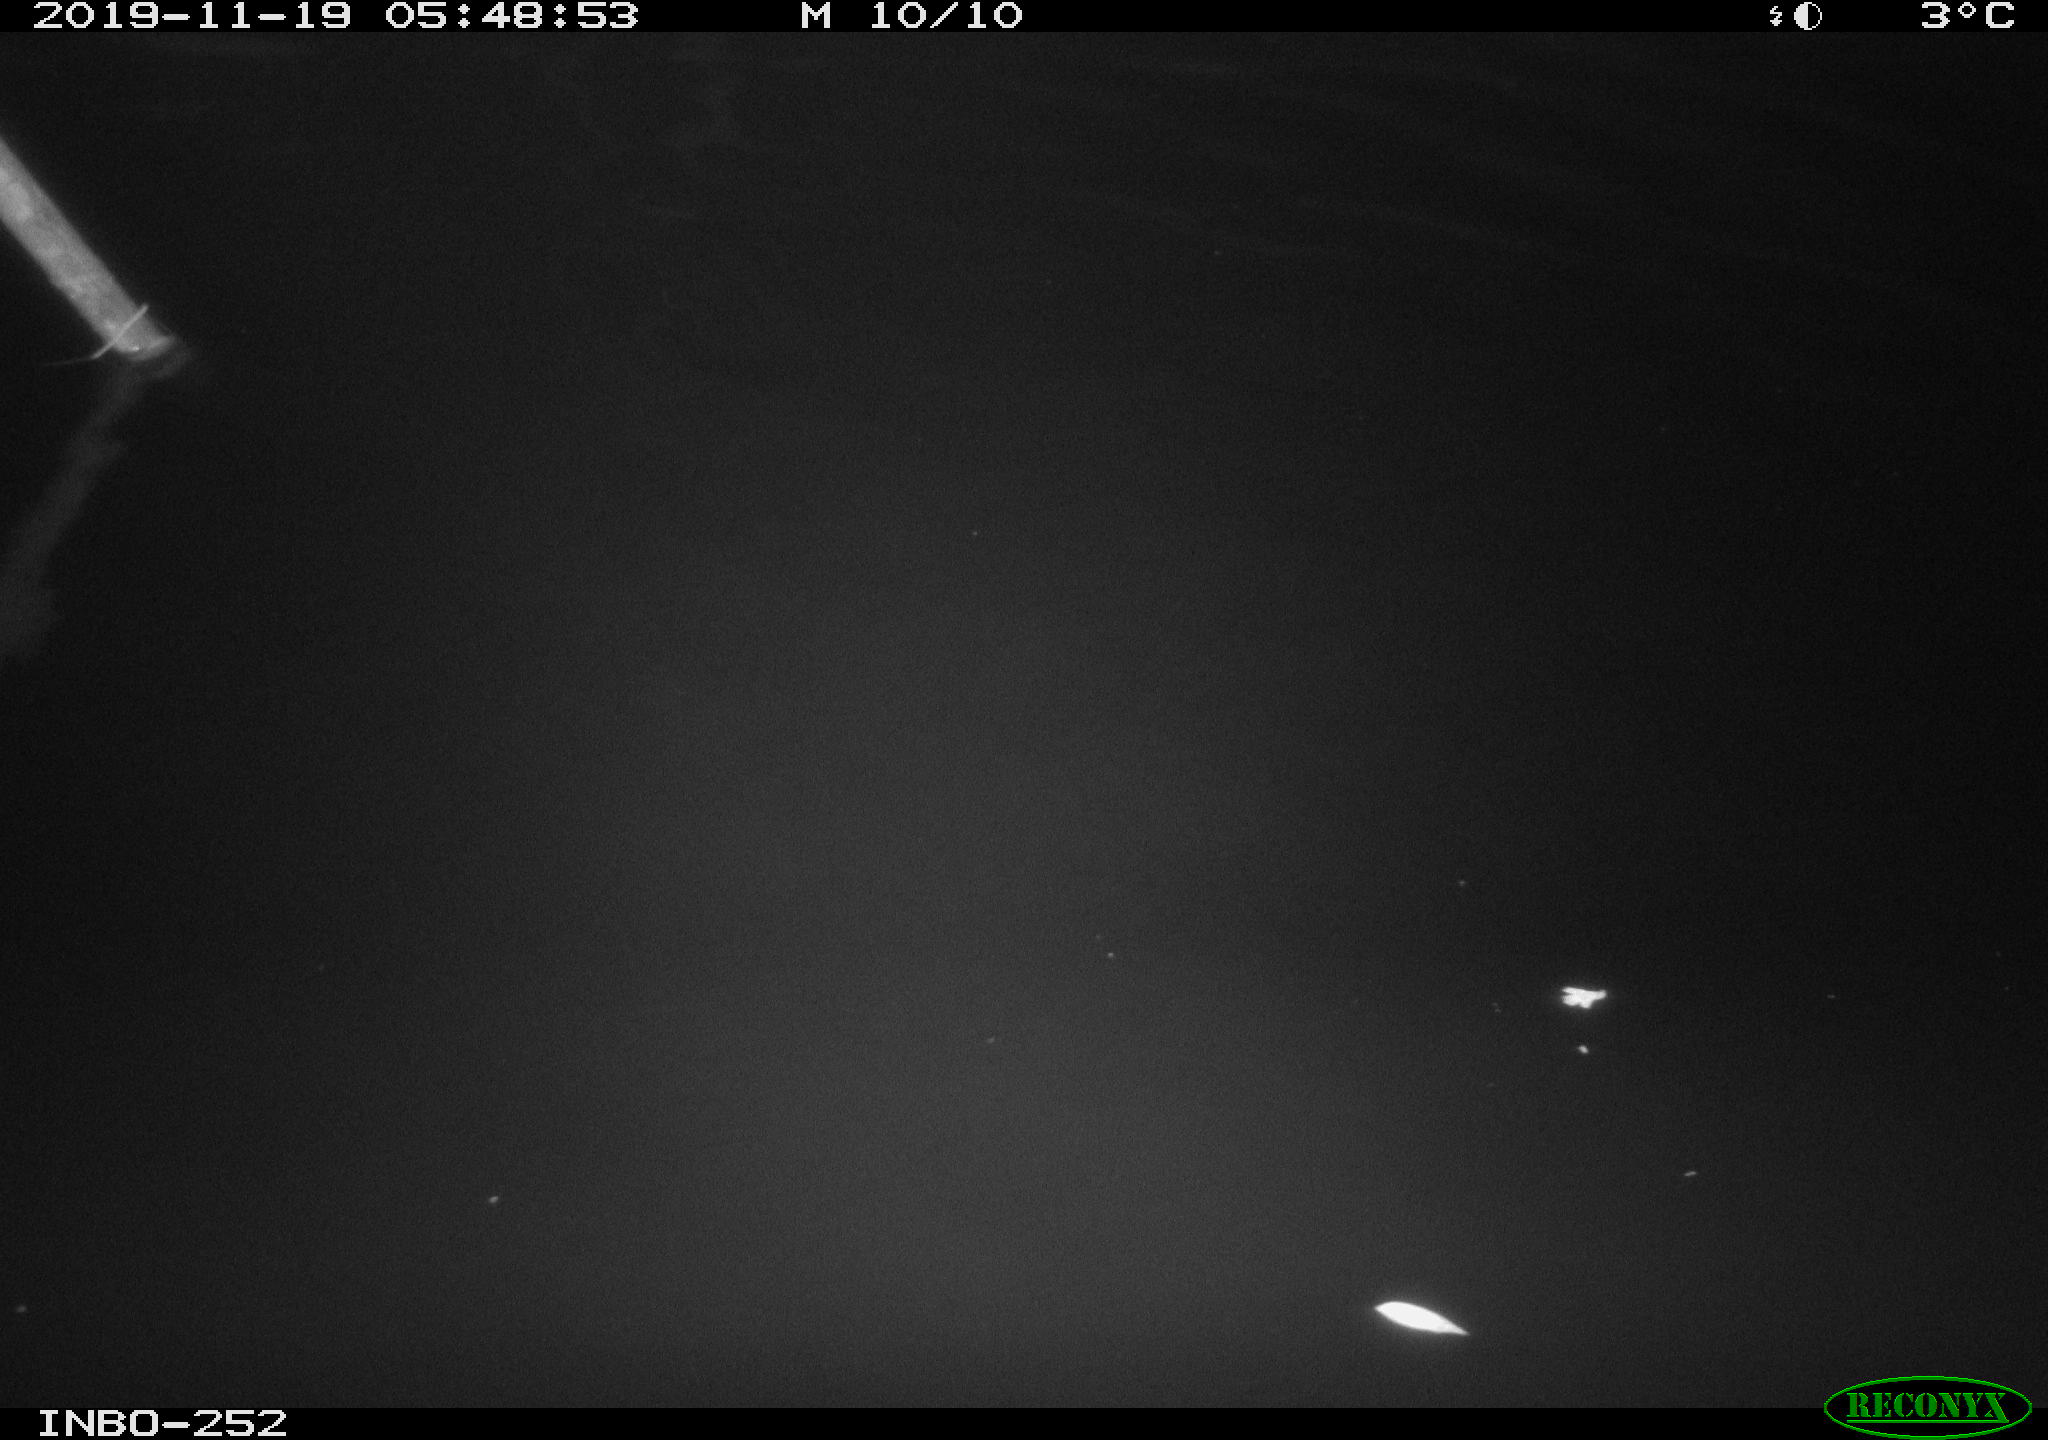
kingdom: Animalia
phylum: Chordata
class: Aves
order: Anseriformes
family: Anatidae
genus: Anas
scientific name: Anas platyrhynchos
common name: Mallard
